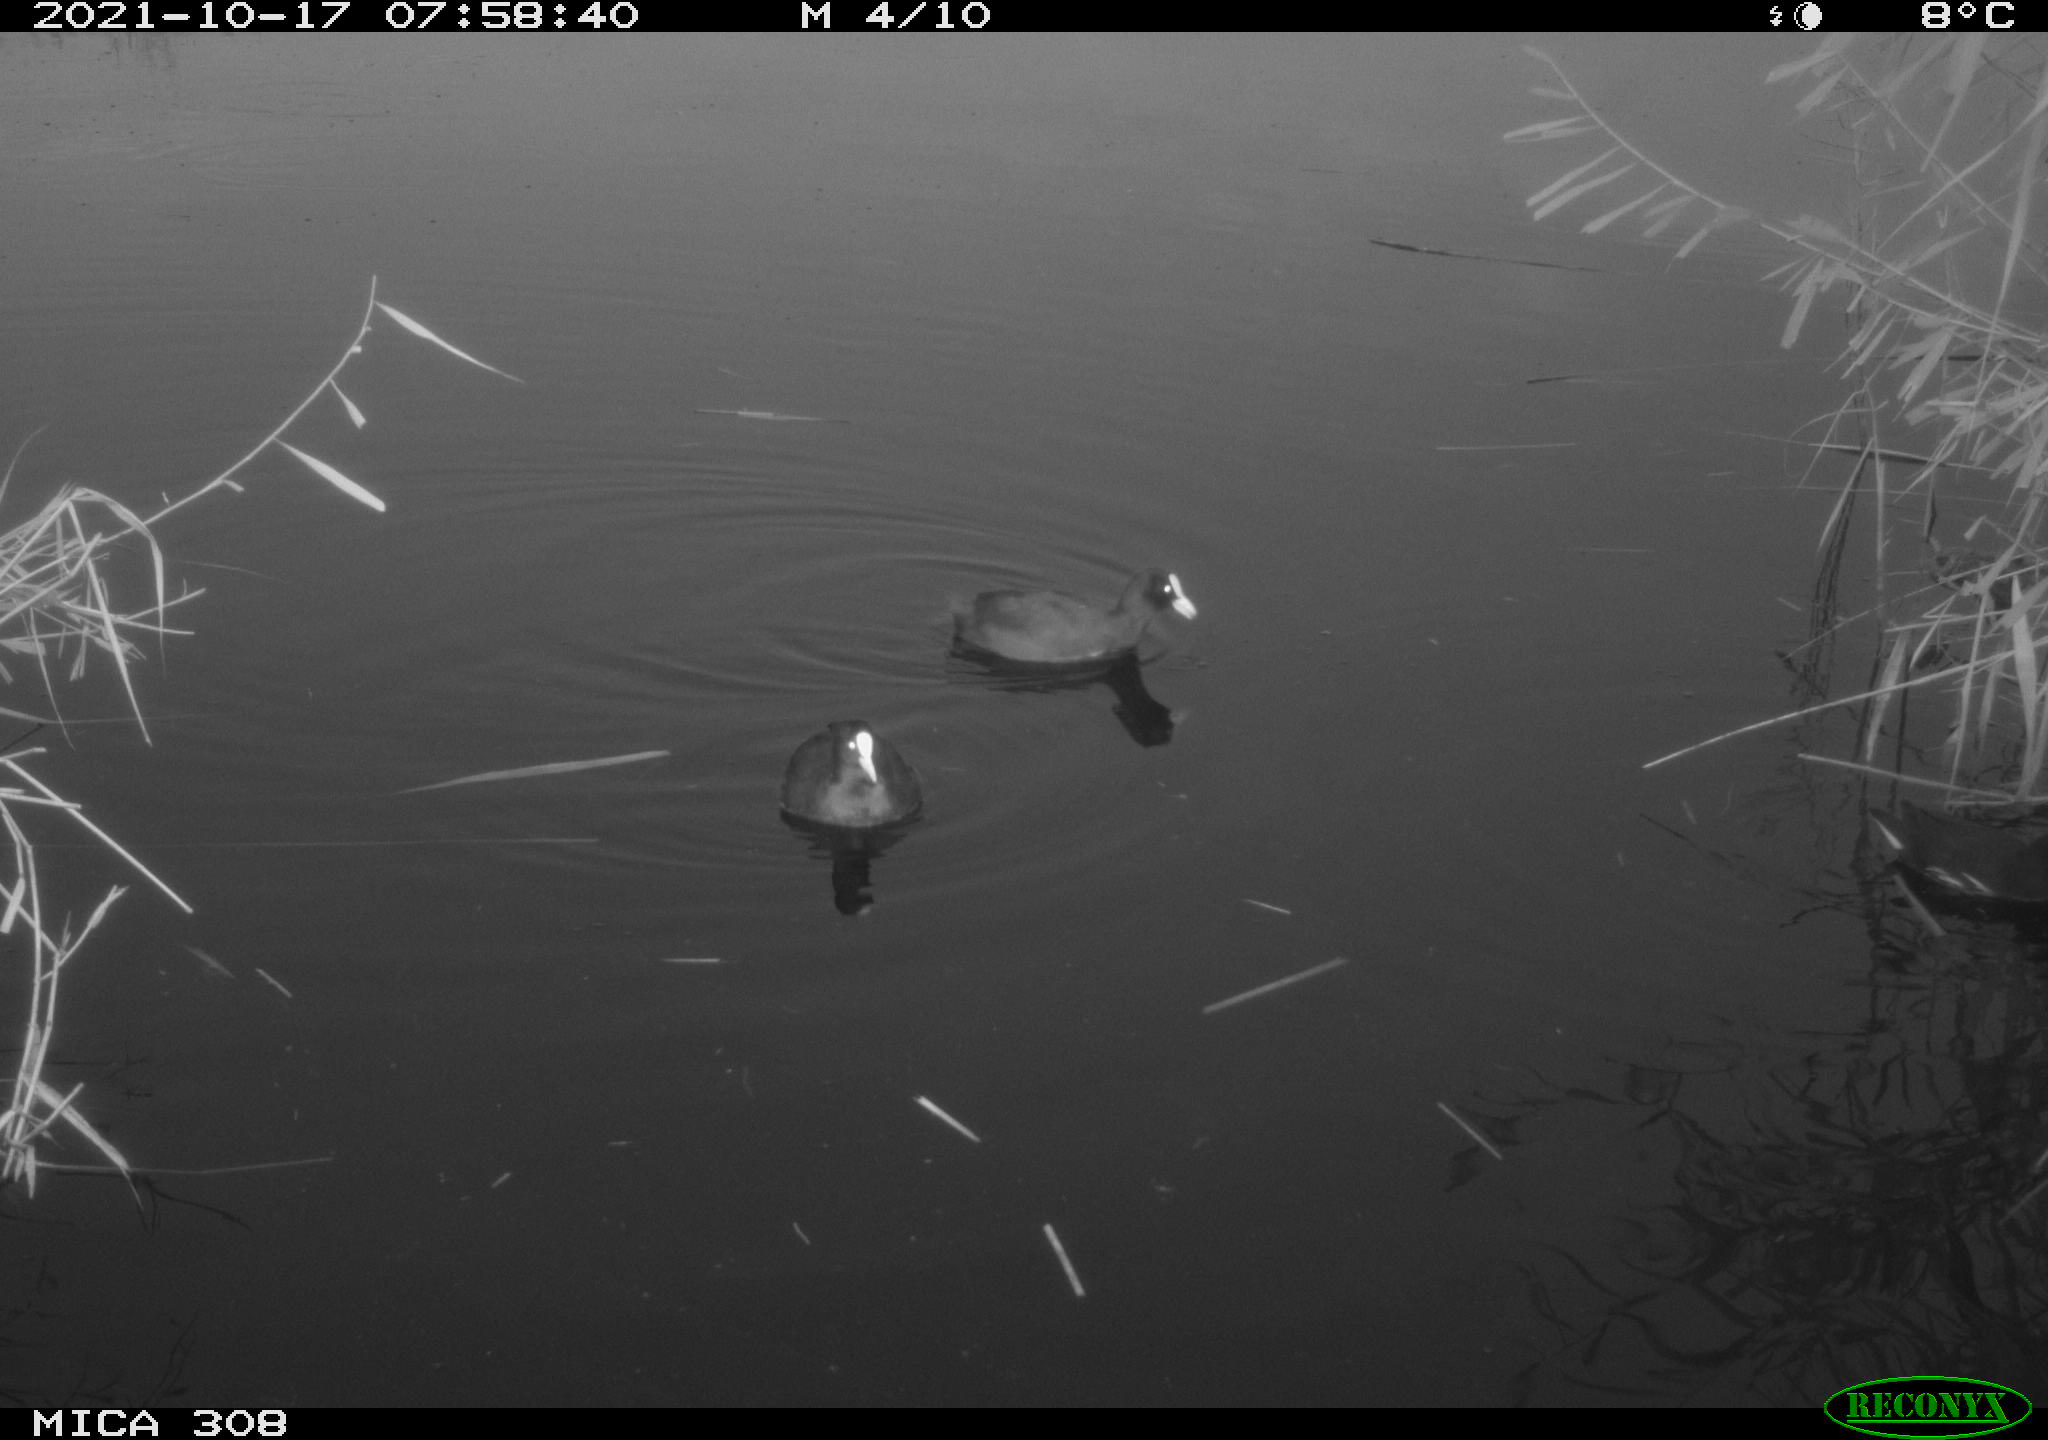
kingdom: Animalia
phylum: Chordata
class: Aves
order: Gruiformes
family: Rallidae
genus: Gallinula
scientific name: Gallinula chloropus
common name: Common moorhen
